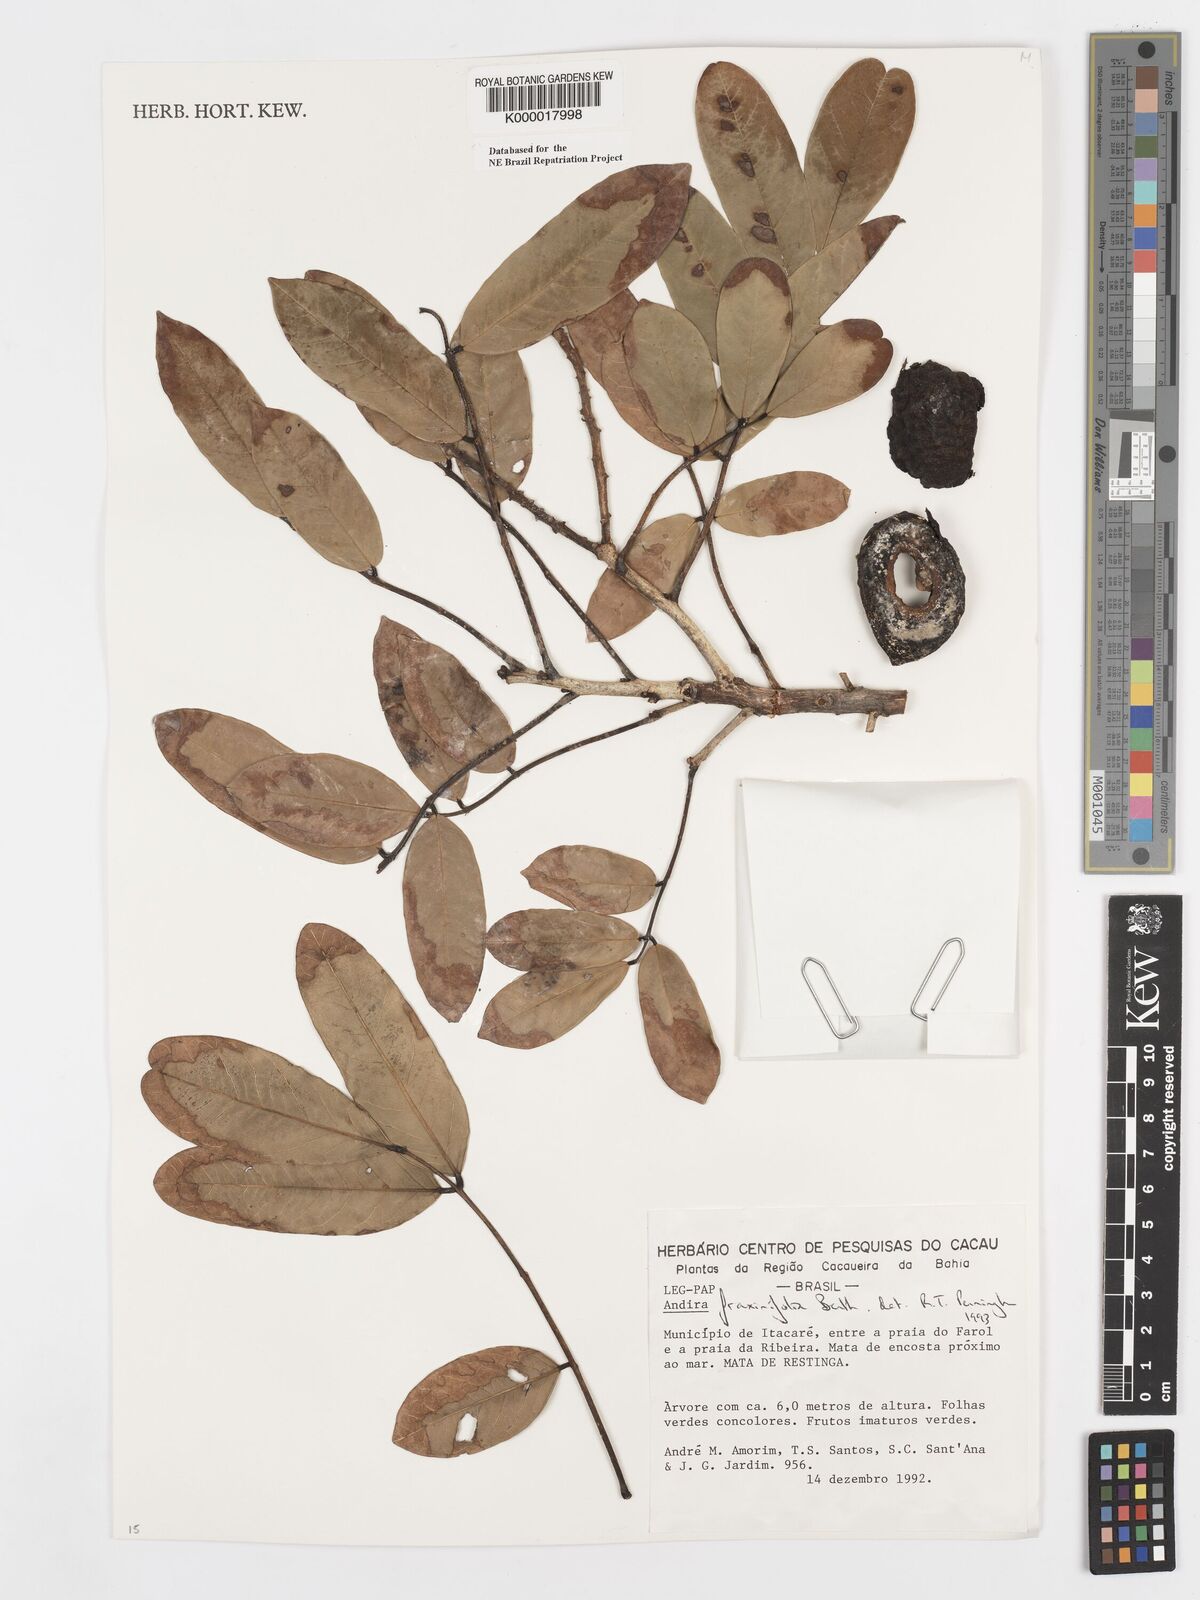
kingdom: Plantae
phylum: Tracheophyta
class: Magnoliopsida
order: Fabales
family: Fabaceae
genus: Andira
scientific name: Andira fraxinifolia
